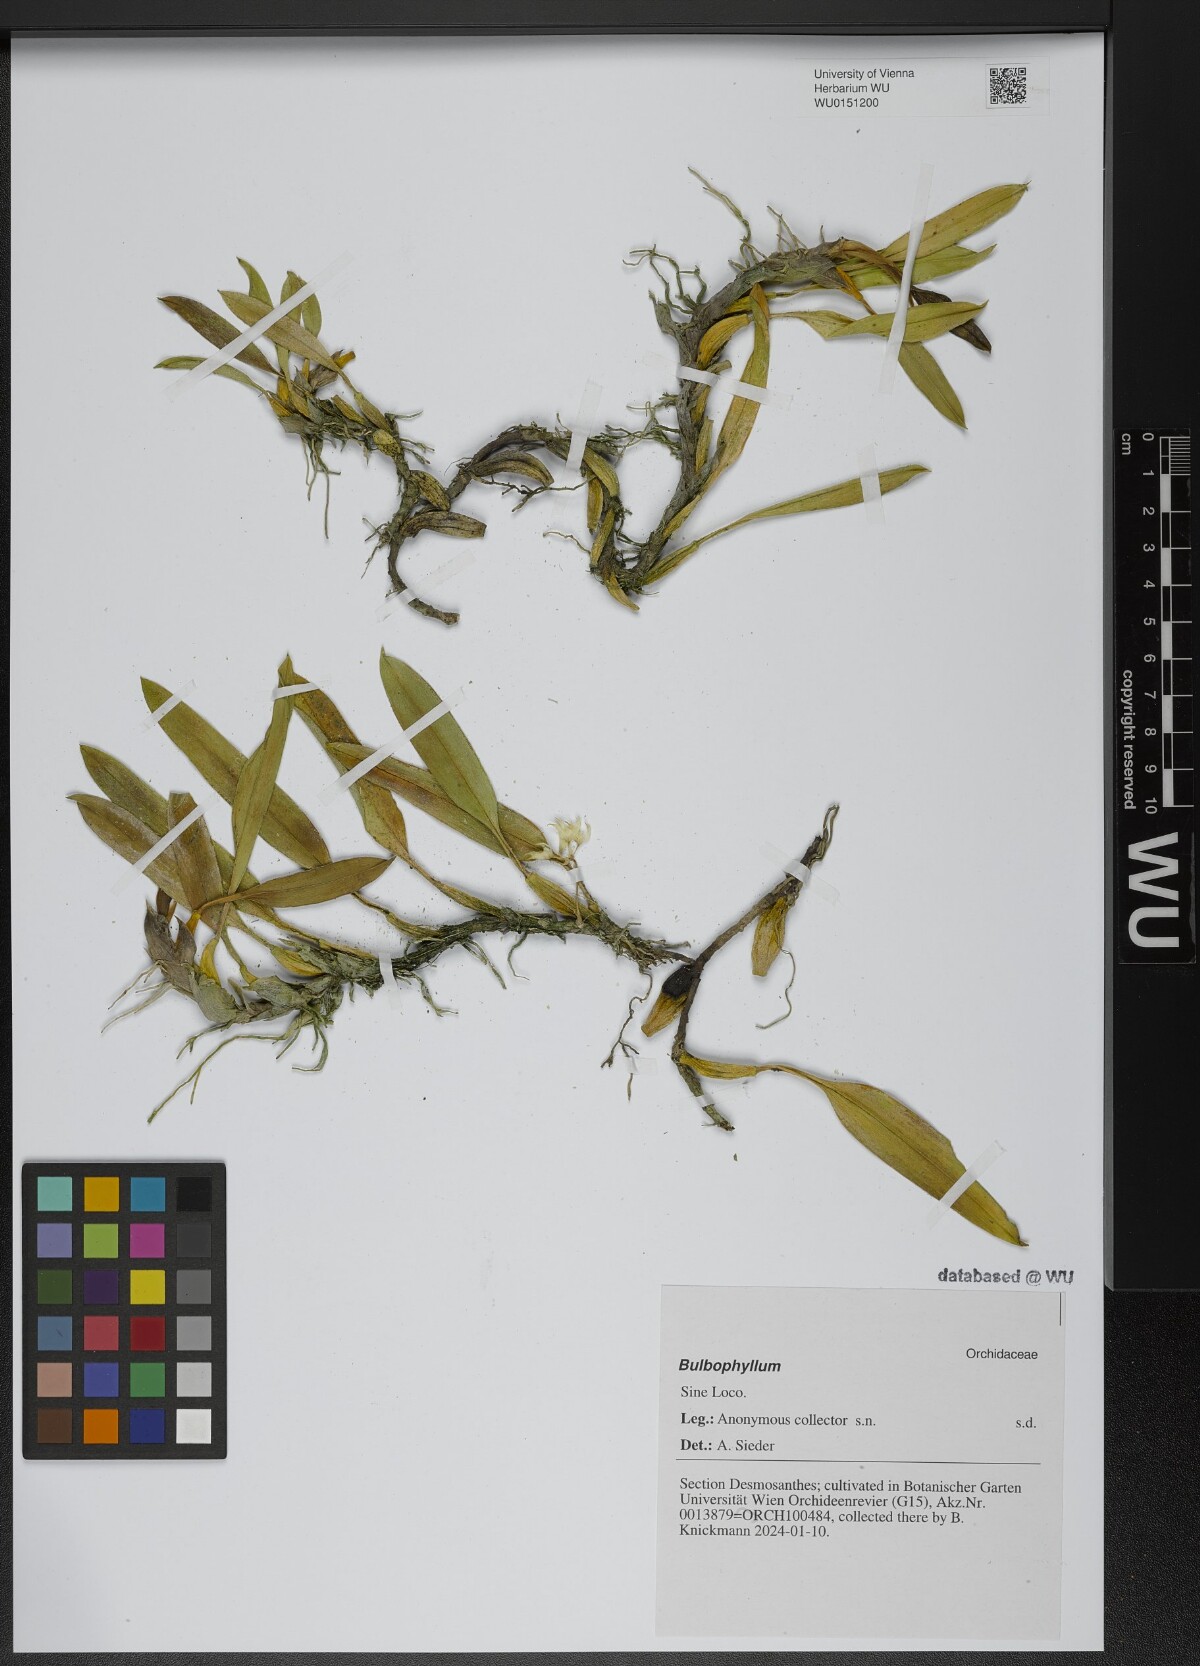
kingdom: Plantae
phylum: Tracheophyta
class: Liliopsida
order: Asparagales
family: Orchidaceae
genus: Bulbophyllum
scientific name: Bulbophyllum
